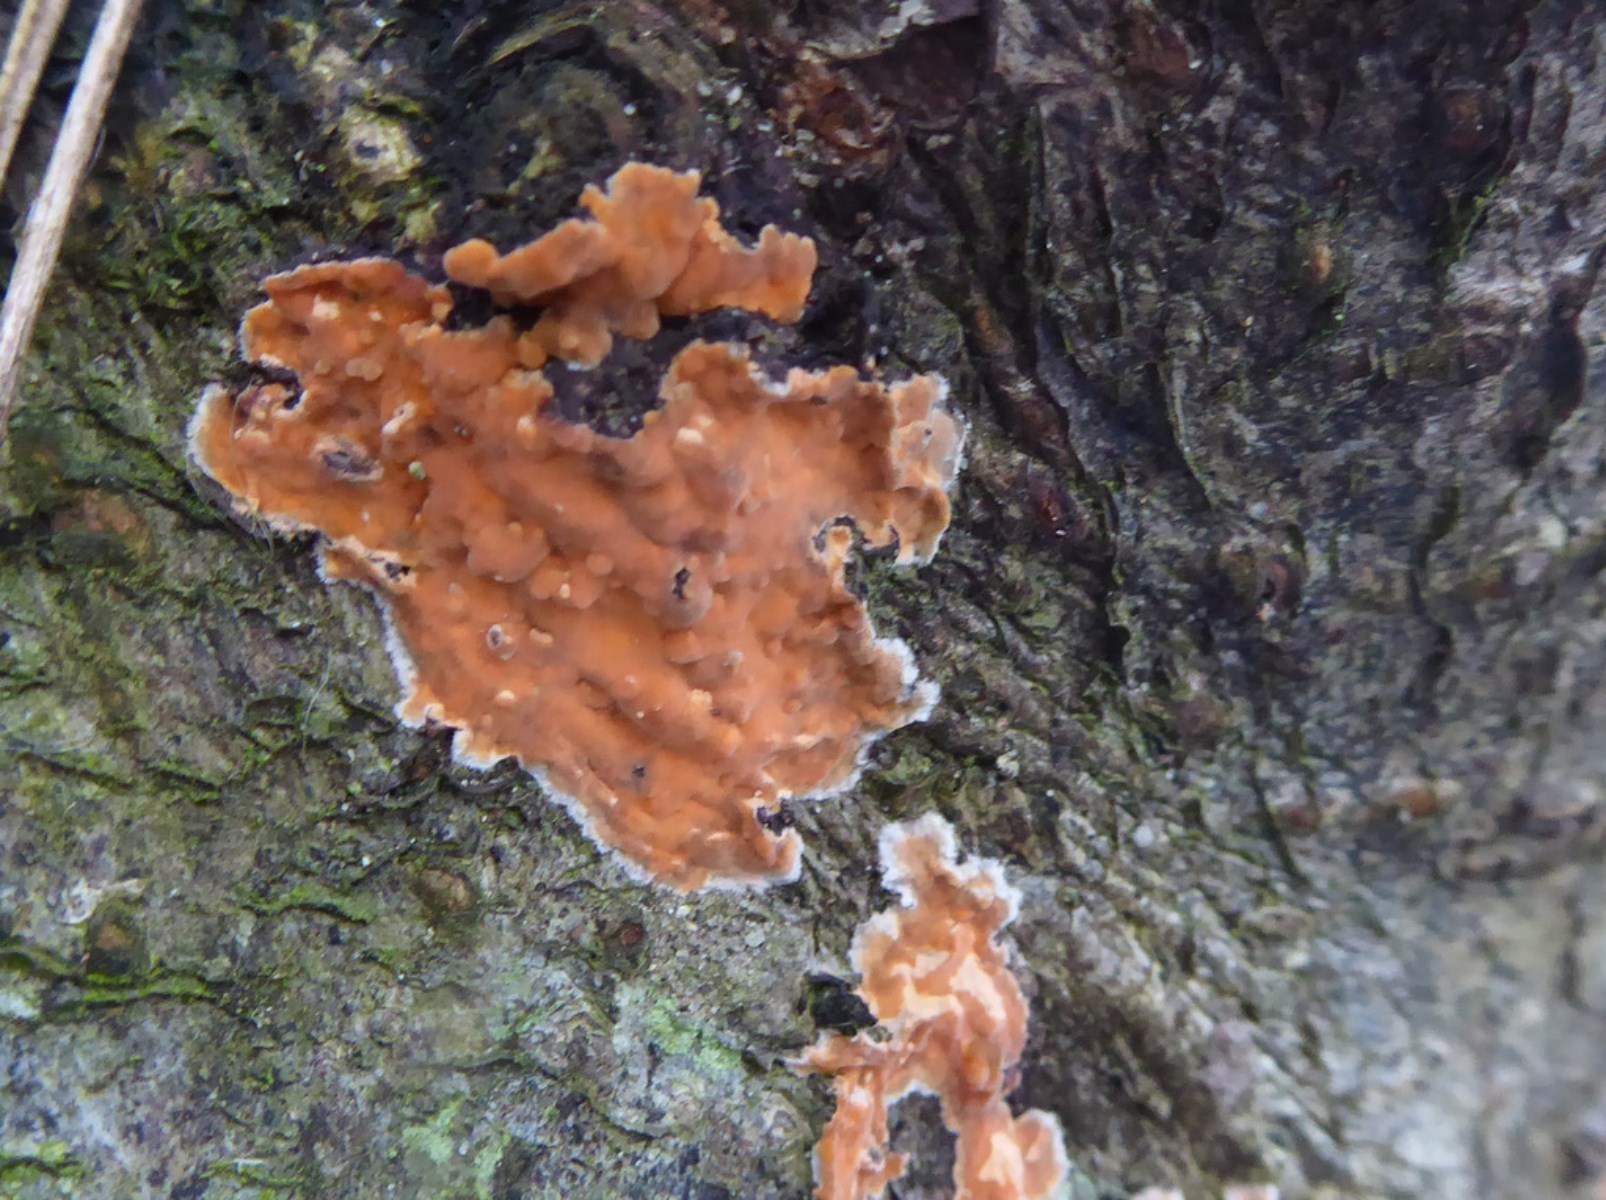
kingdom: Fungi
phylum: Basidiomycota
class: Agaricomycetes
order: Russulales
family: Peniophoraceae
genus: Peniophora
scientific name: Peniophora incarnata
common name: laksefarvet voksskind
